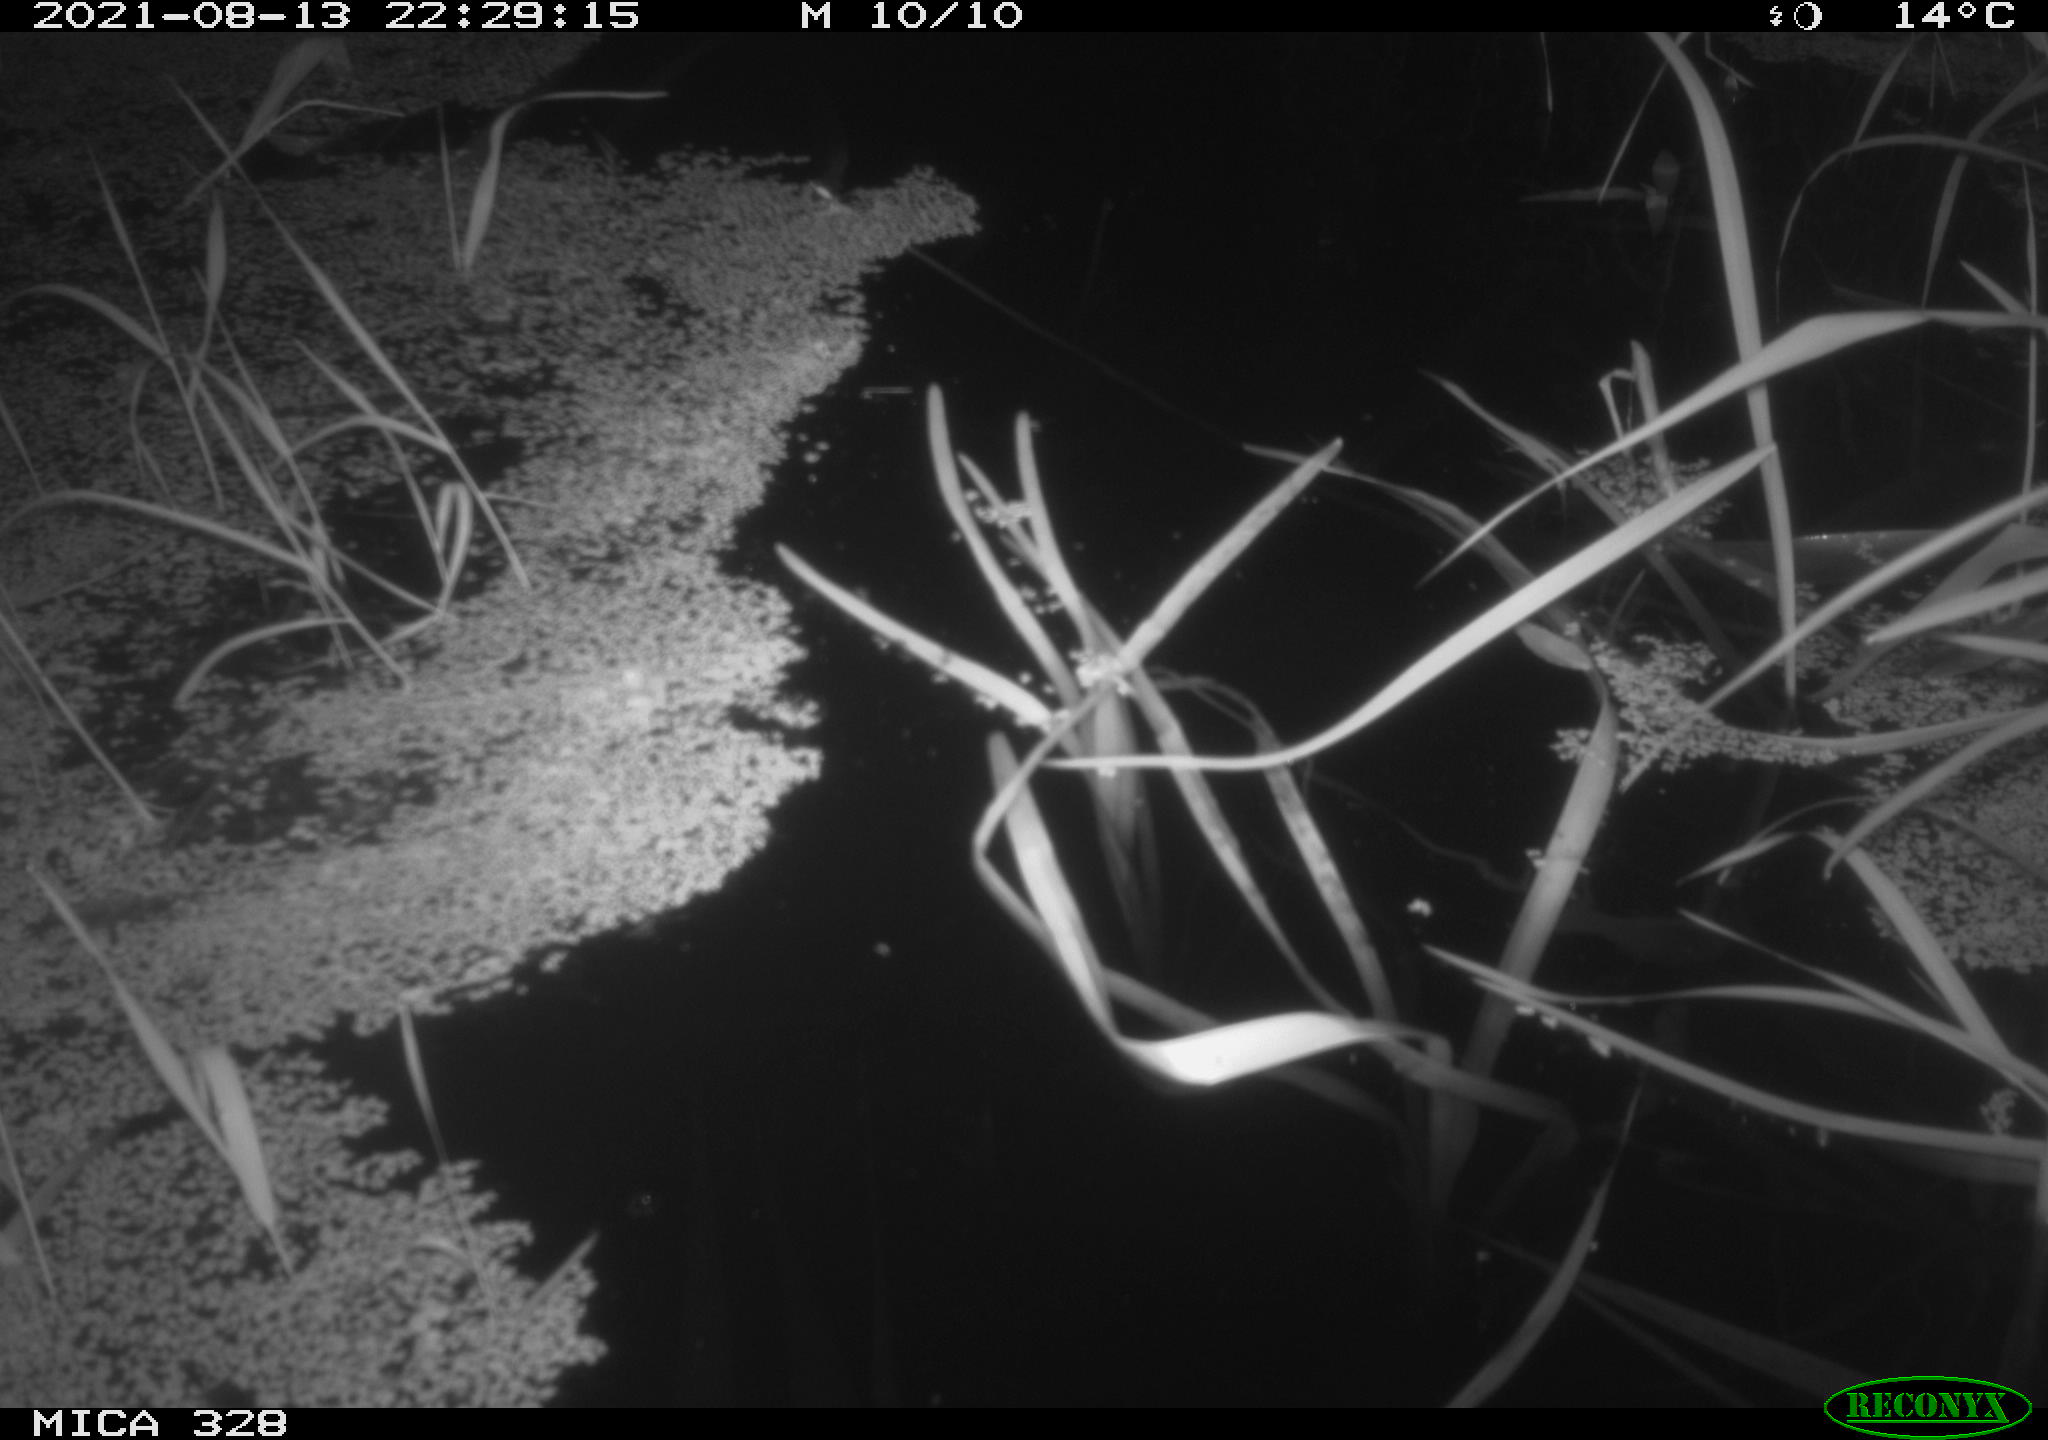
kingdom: Animalia
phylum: Chordata
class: Mammalia
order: Rodentia
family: Cricetidae
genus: Ondatra
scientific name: Ondatra zibethicus
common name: Muskrat
